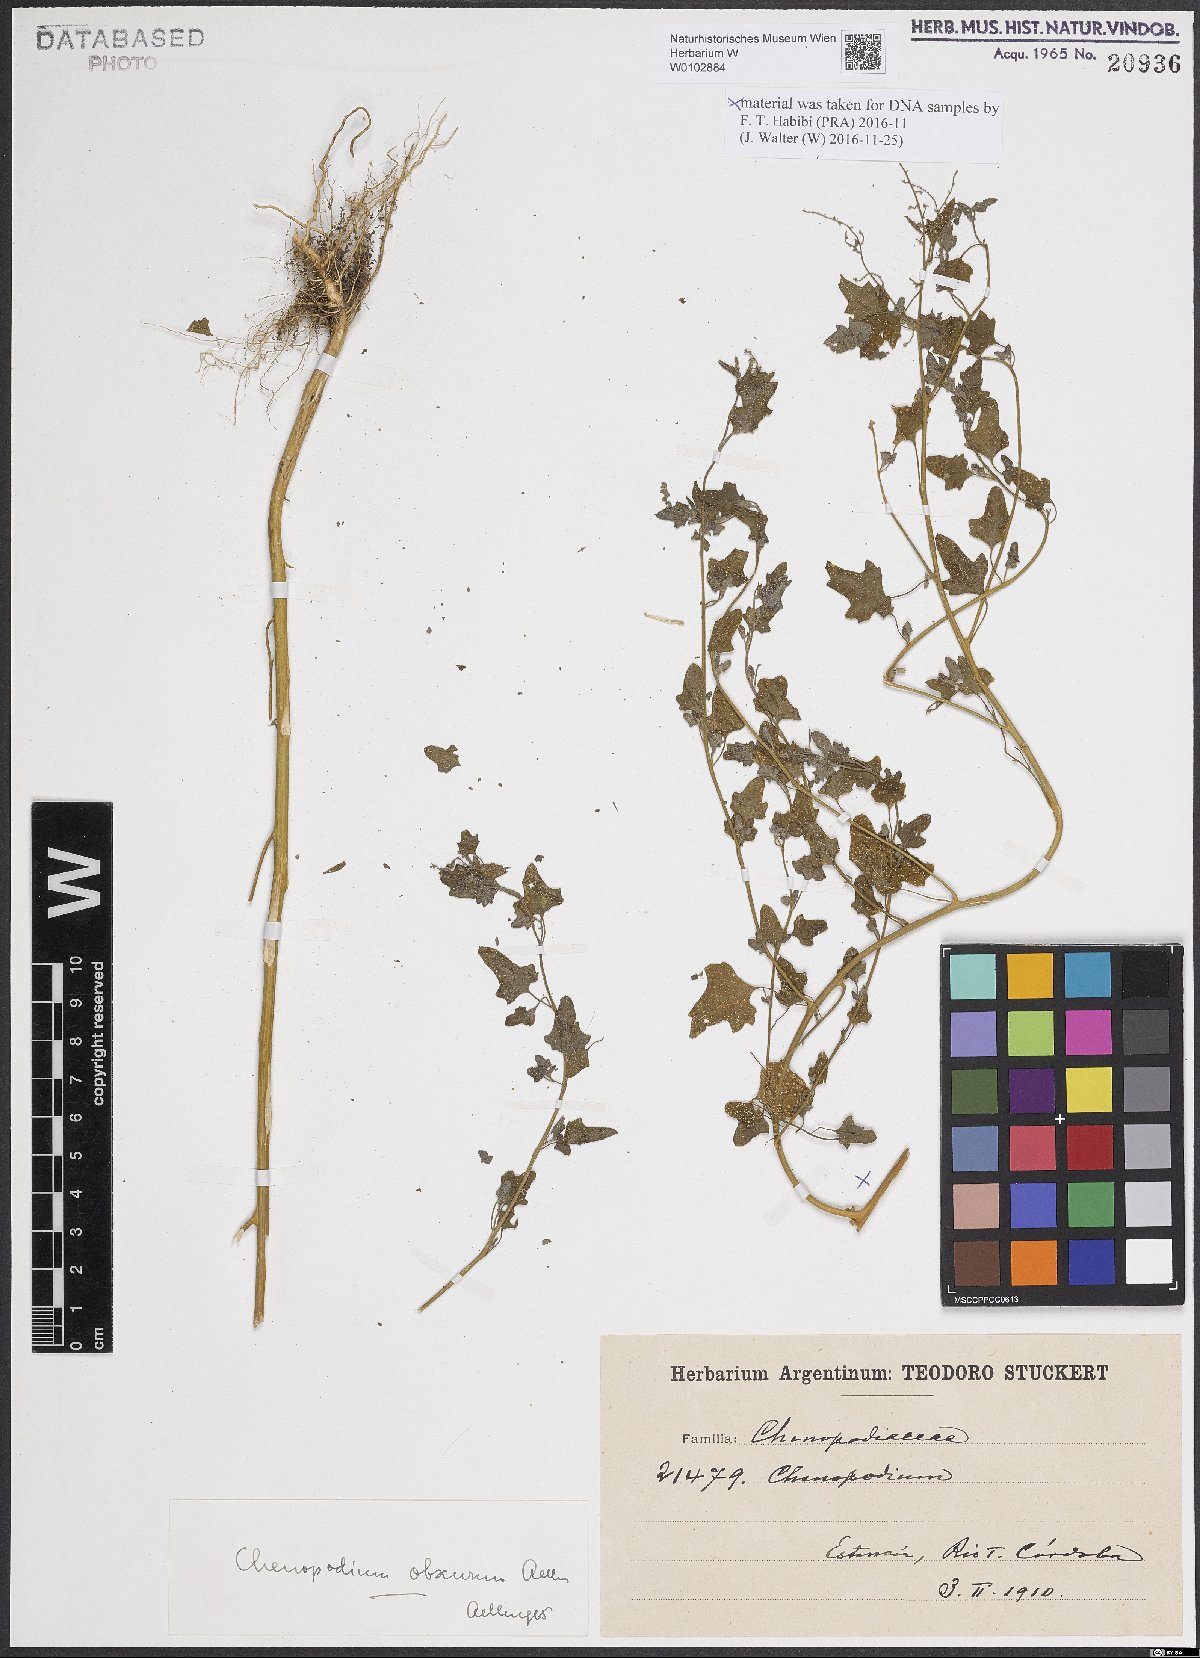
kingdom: Plantae
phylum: Tracheophyta
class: Magnoliopsida
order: Caryophyllales
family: Amaranthaceae
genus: Chenopodium
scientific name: Chenopodium obscurum
